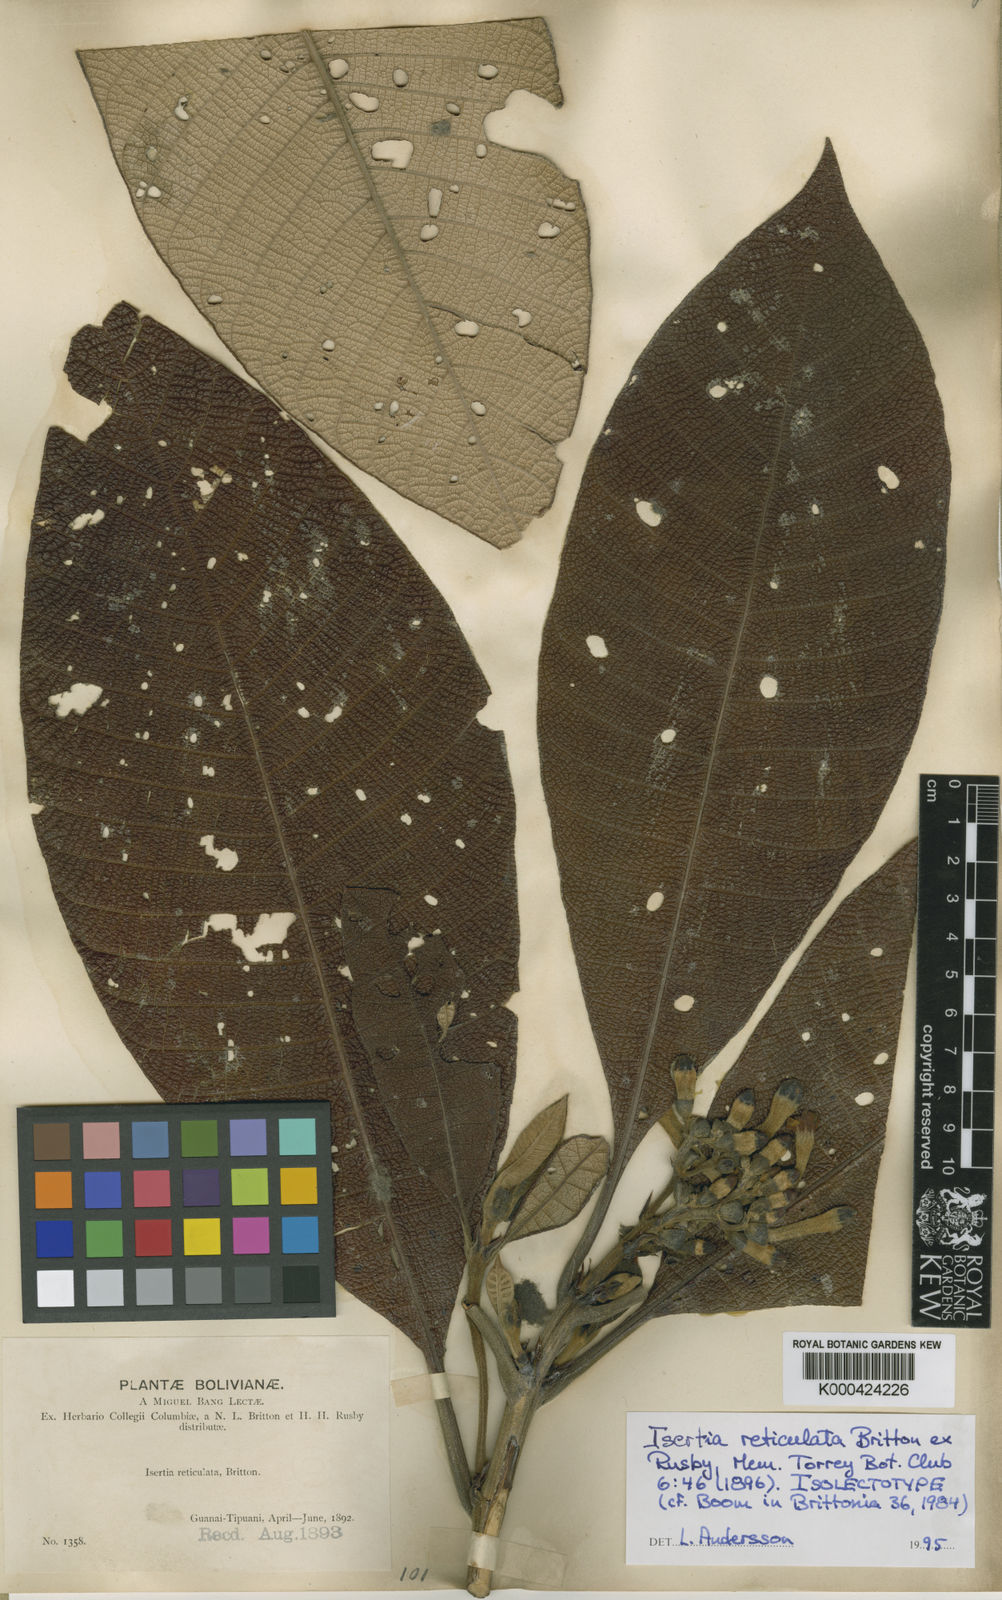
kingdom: Plantae
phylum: Tracheophyta
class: Magnoliopsida
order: Gentianales
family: Rubiaceae
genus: Isertia
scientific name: Isertia reticulata
